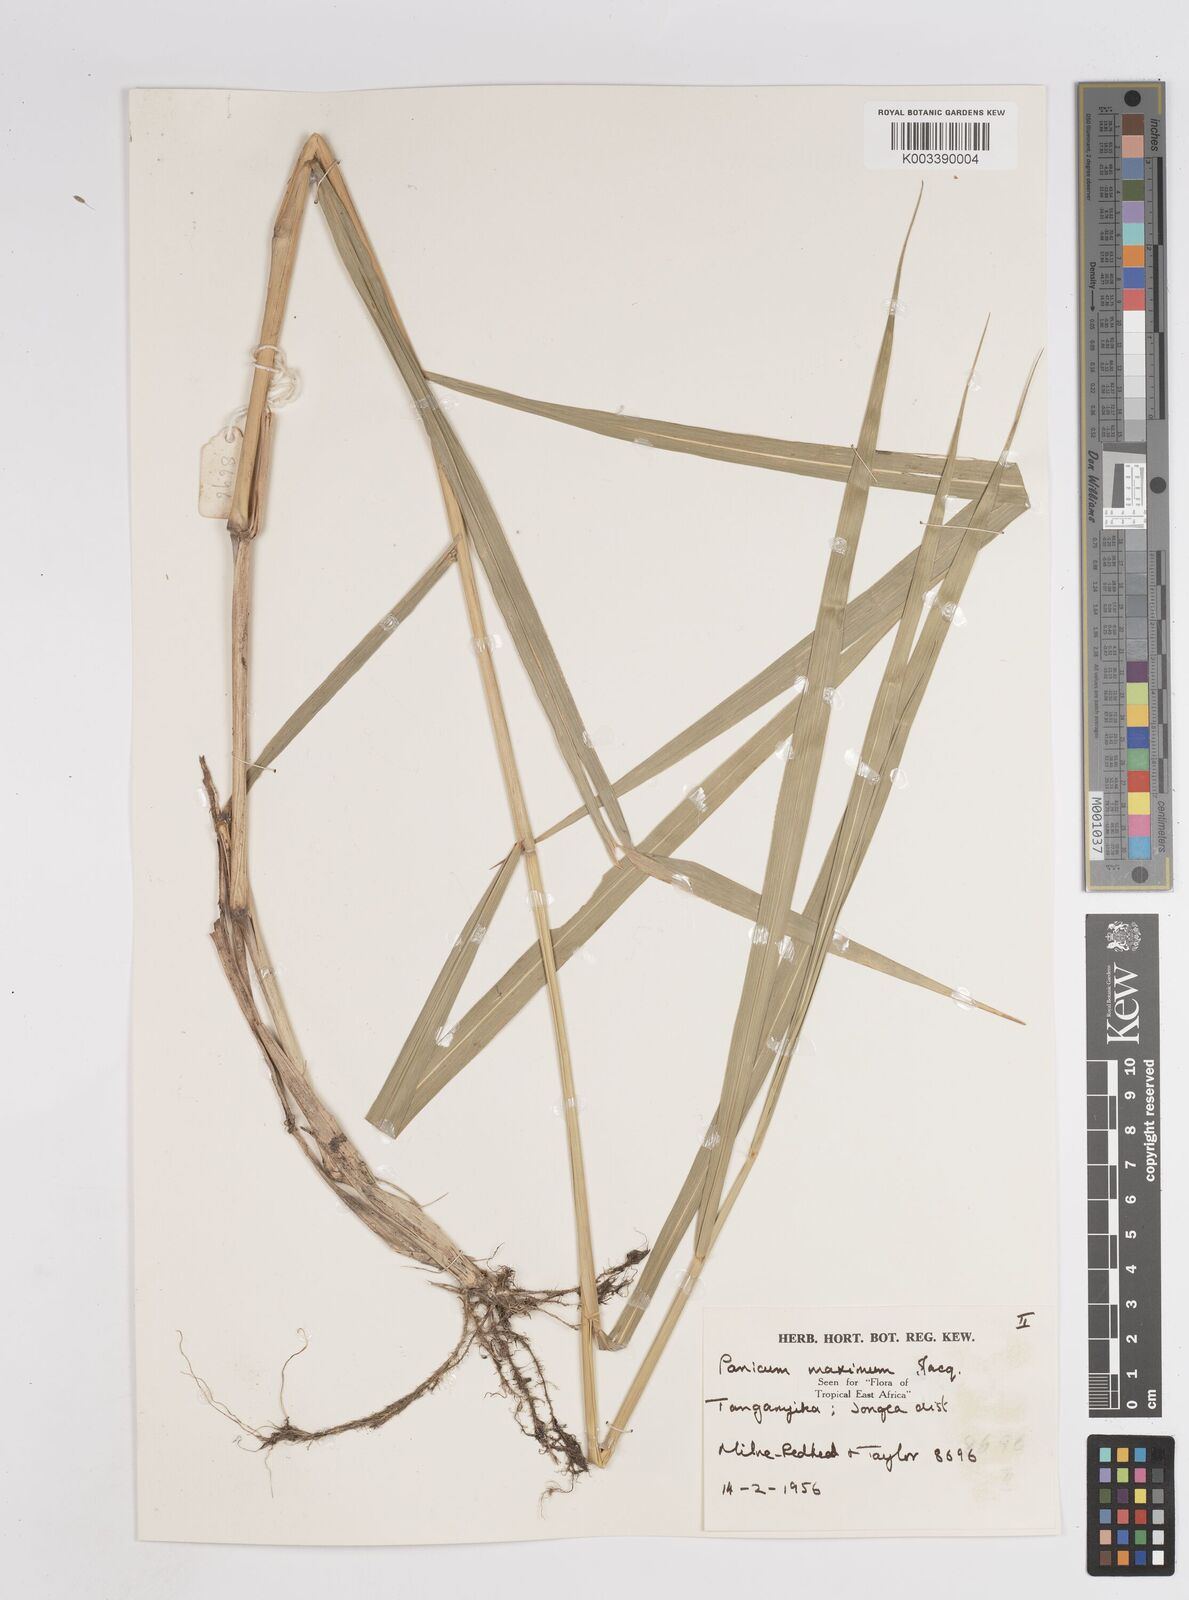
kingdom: Plantae
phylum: Tracheophyta
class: Liliopsida
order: Poales
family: Poaceae
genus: Megathyrsus
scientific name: Megathyrsus maximus
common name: Guineagrass
